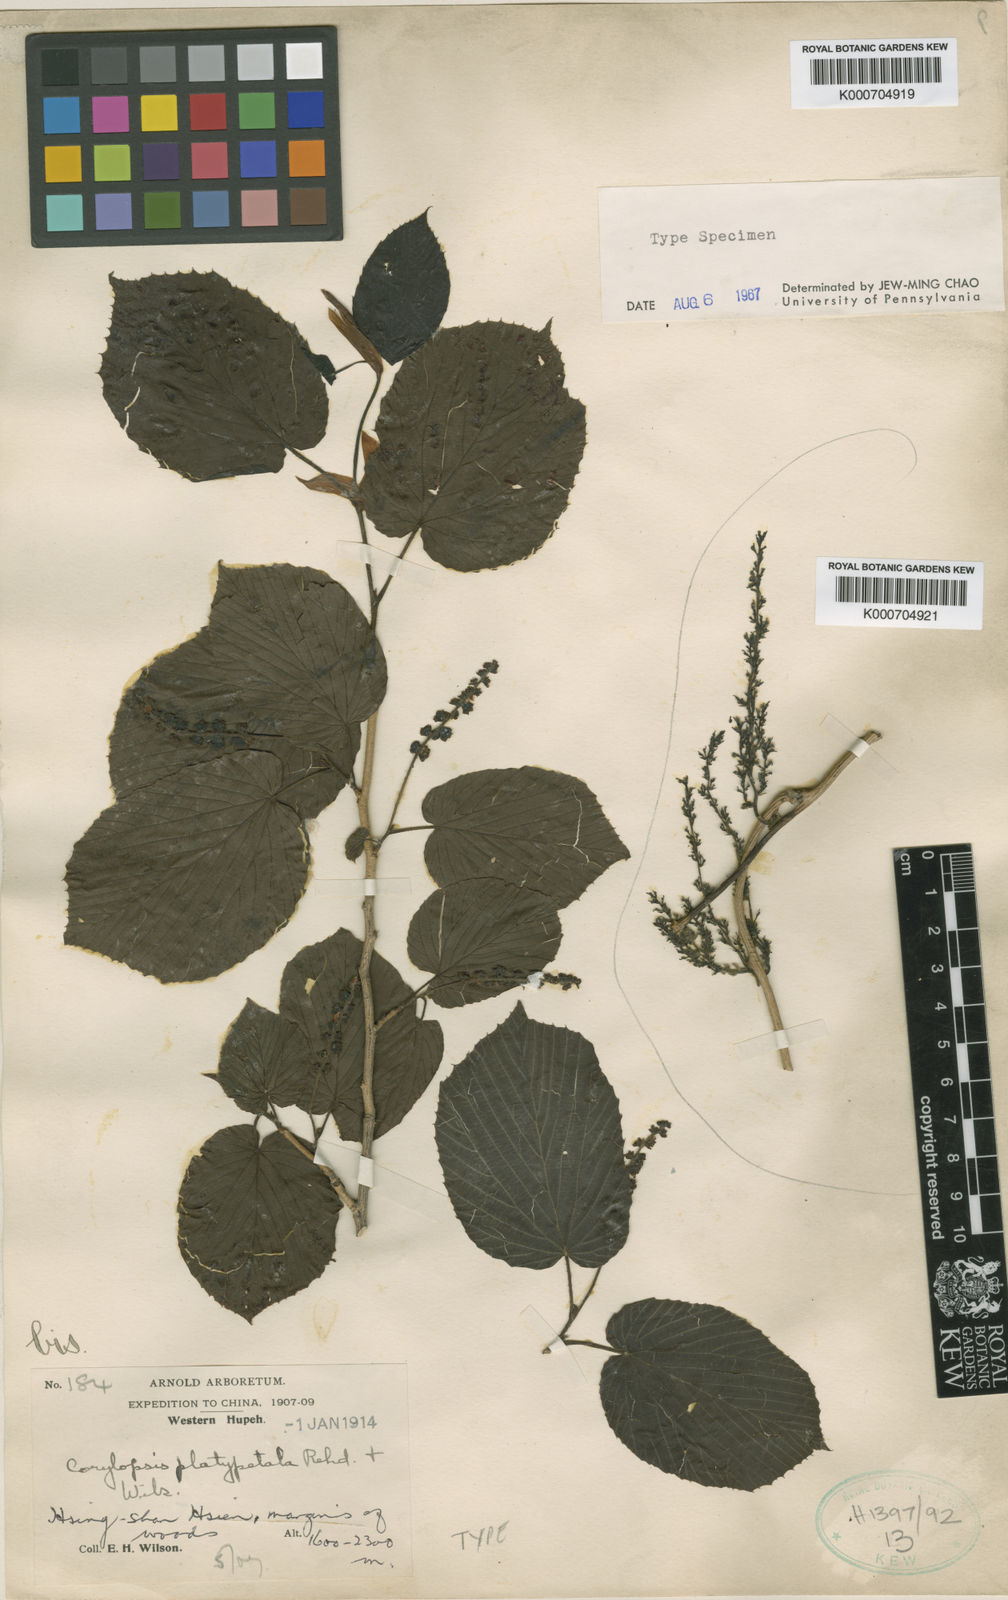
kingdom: Plantae
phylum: Tracheophyta
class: Magnoliopsida
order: Saxifragales
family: Hamamelidaceae
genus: Corylopsis
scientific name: Corylopsis sinensis
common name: Winter hazel
